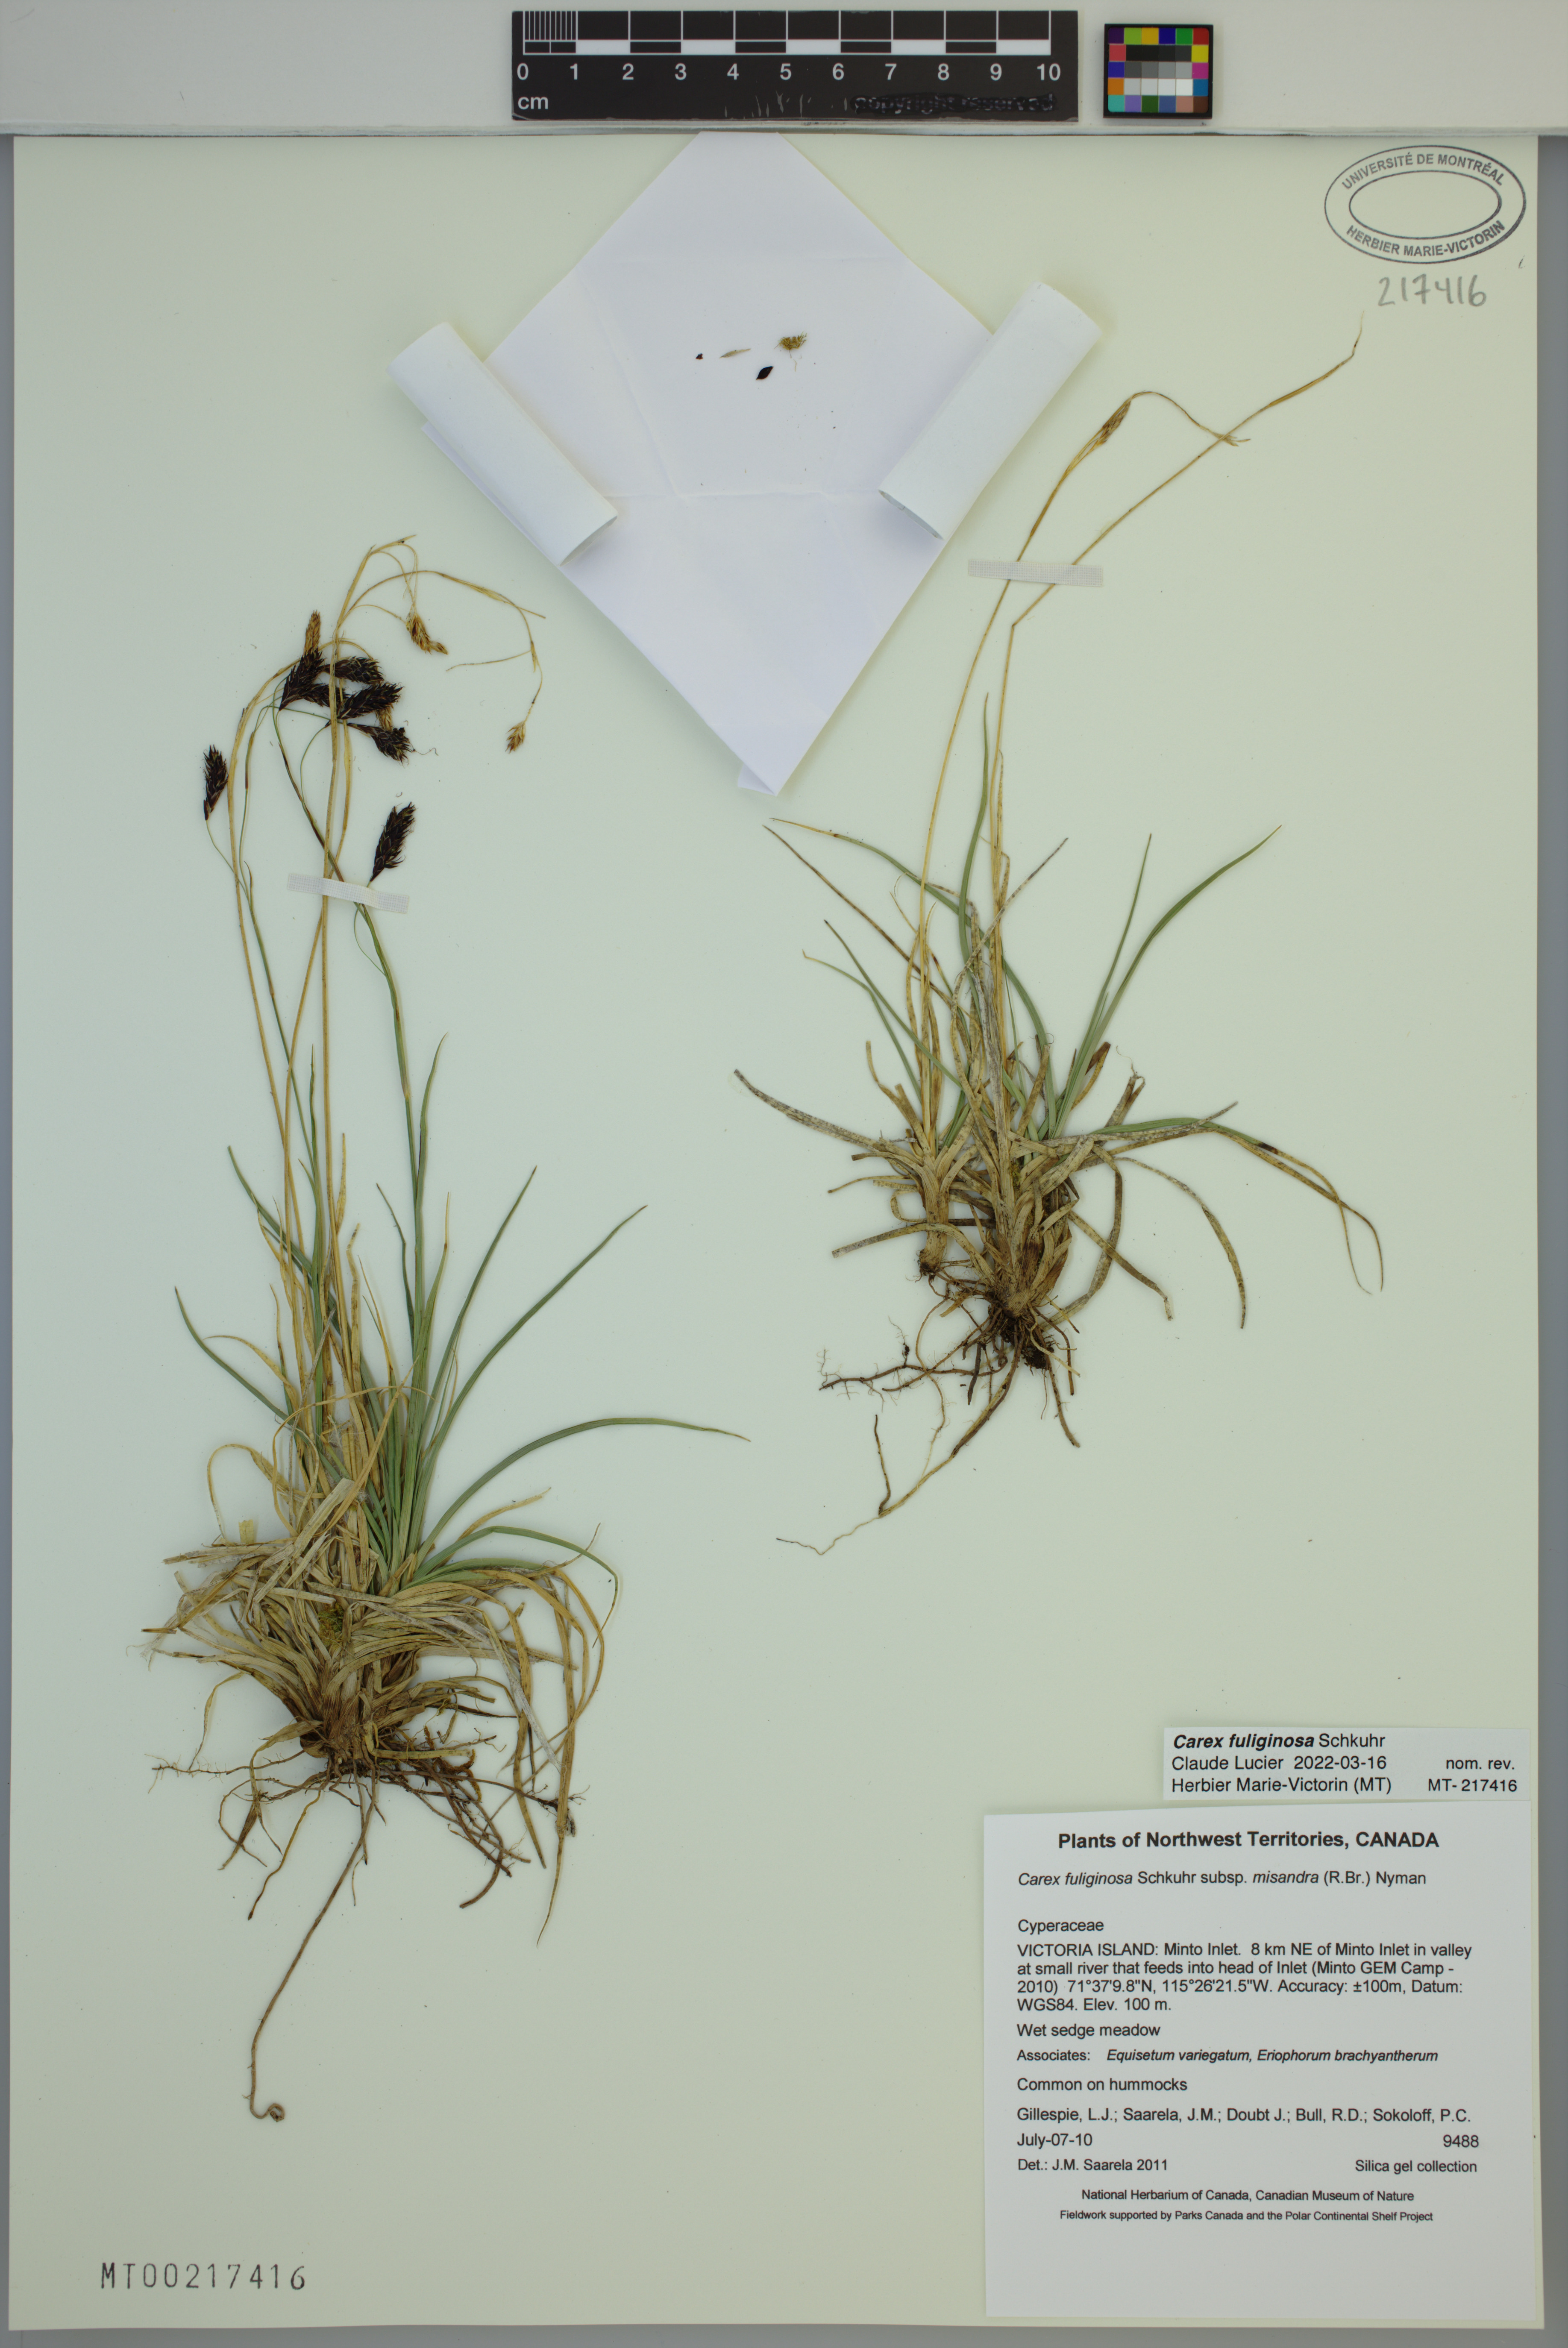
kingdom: Plantae
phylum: Tracheophyta
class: Liliopsida
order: Poales
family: Cyperaceae
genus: Carex
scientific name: Carex fuliginosa
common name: Few-flowered sedge
